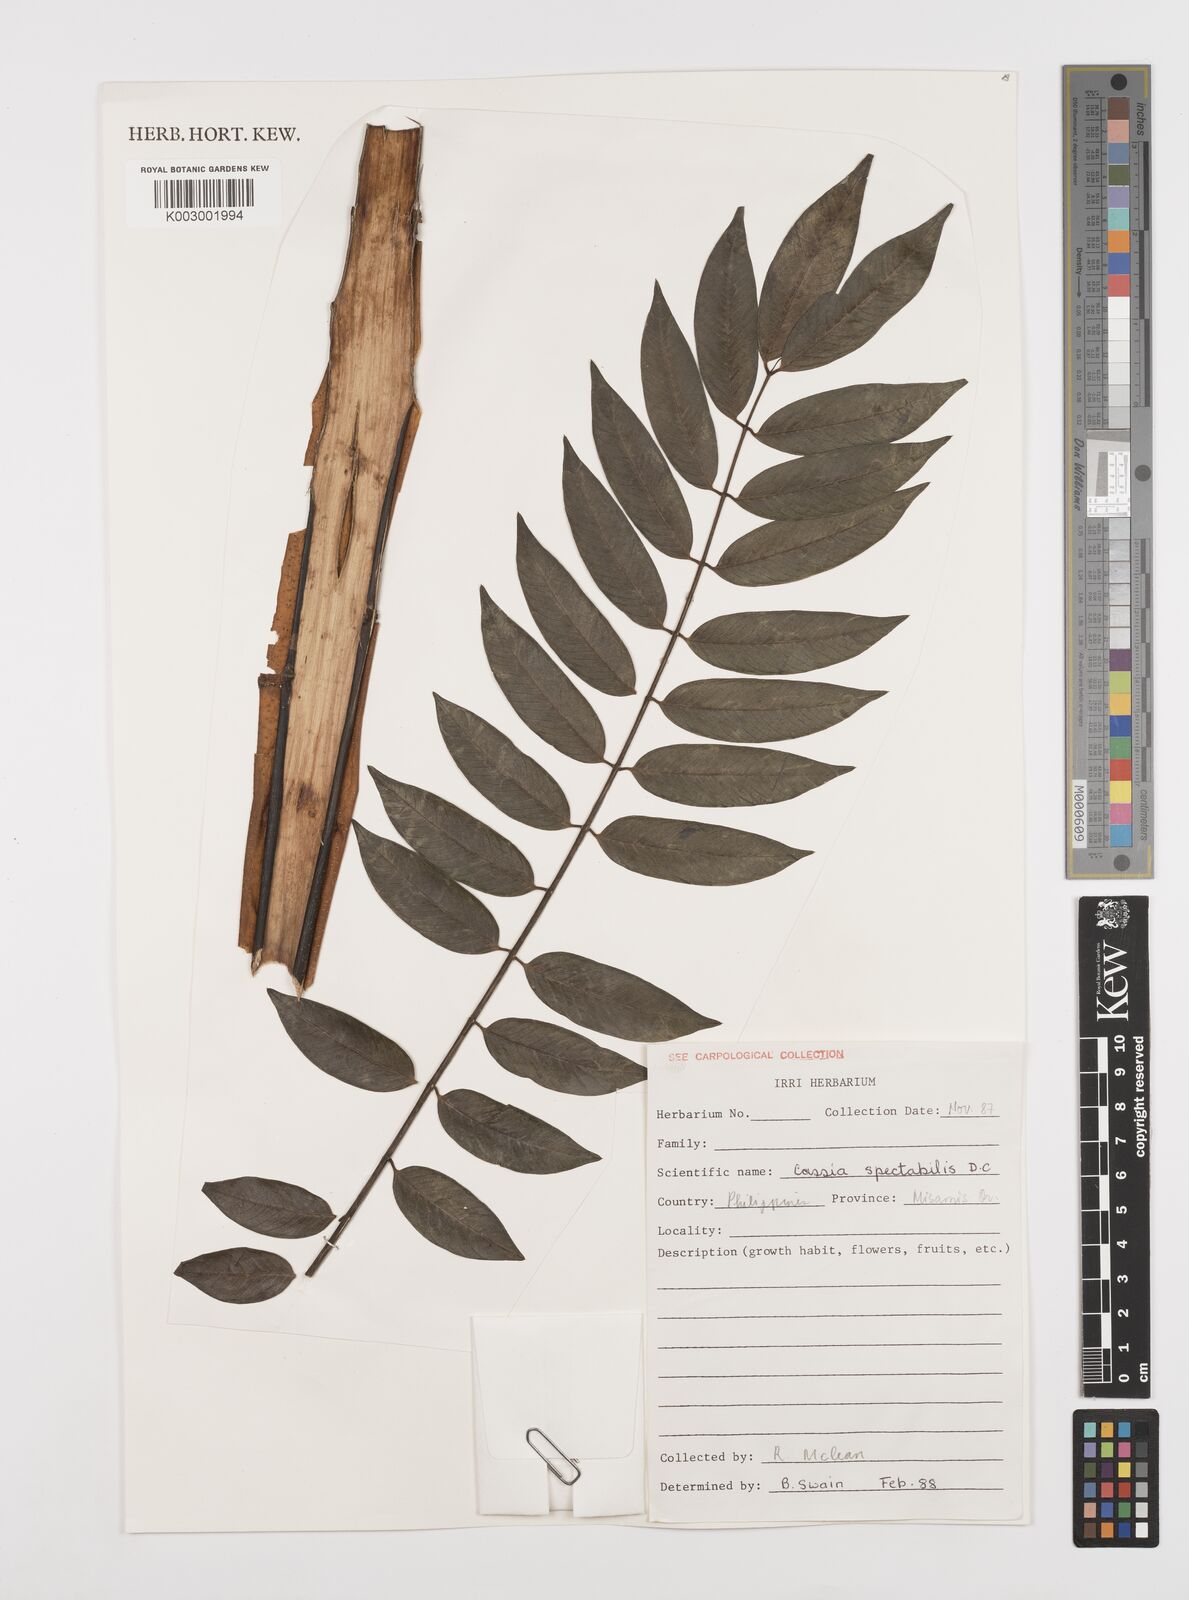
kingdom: Plantae
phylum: Tracheophyta
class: Magnoliopsida
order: Fabales
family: Fabaceae
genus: Senna
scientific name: Senna spectabilis
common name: Casia amarilla
